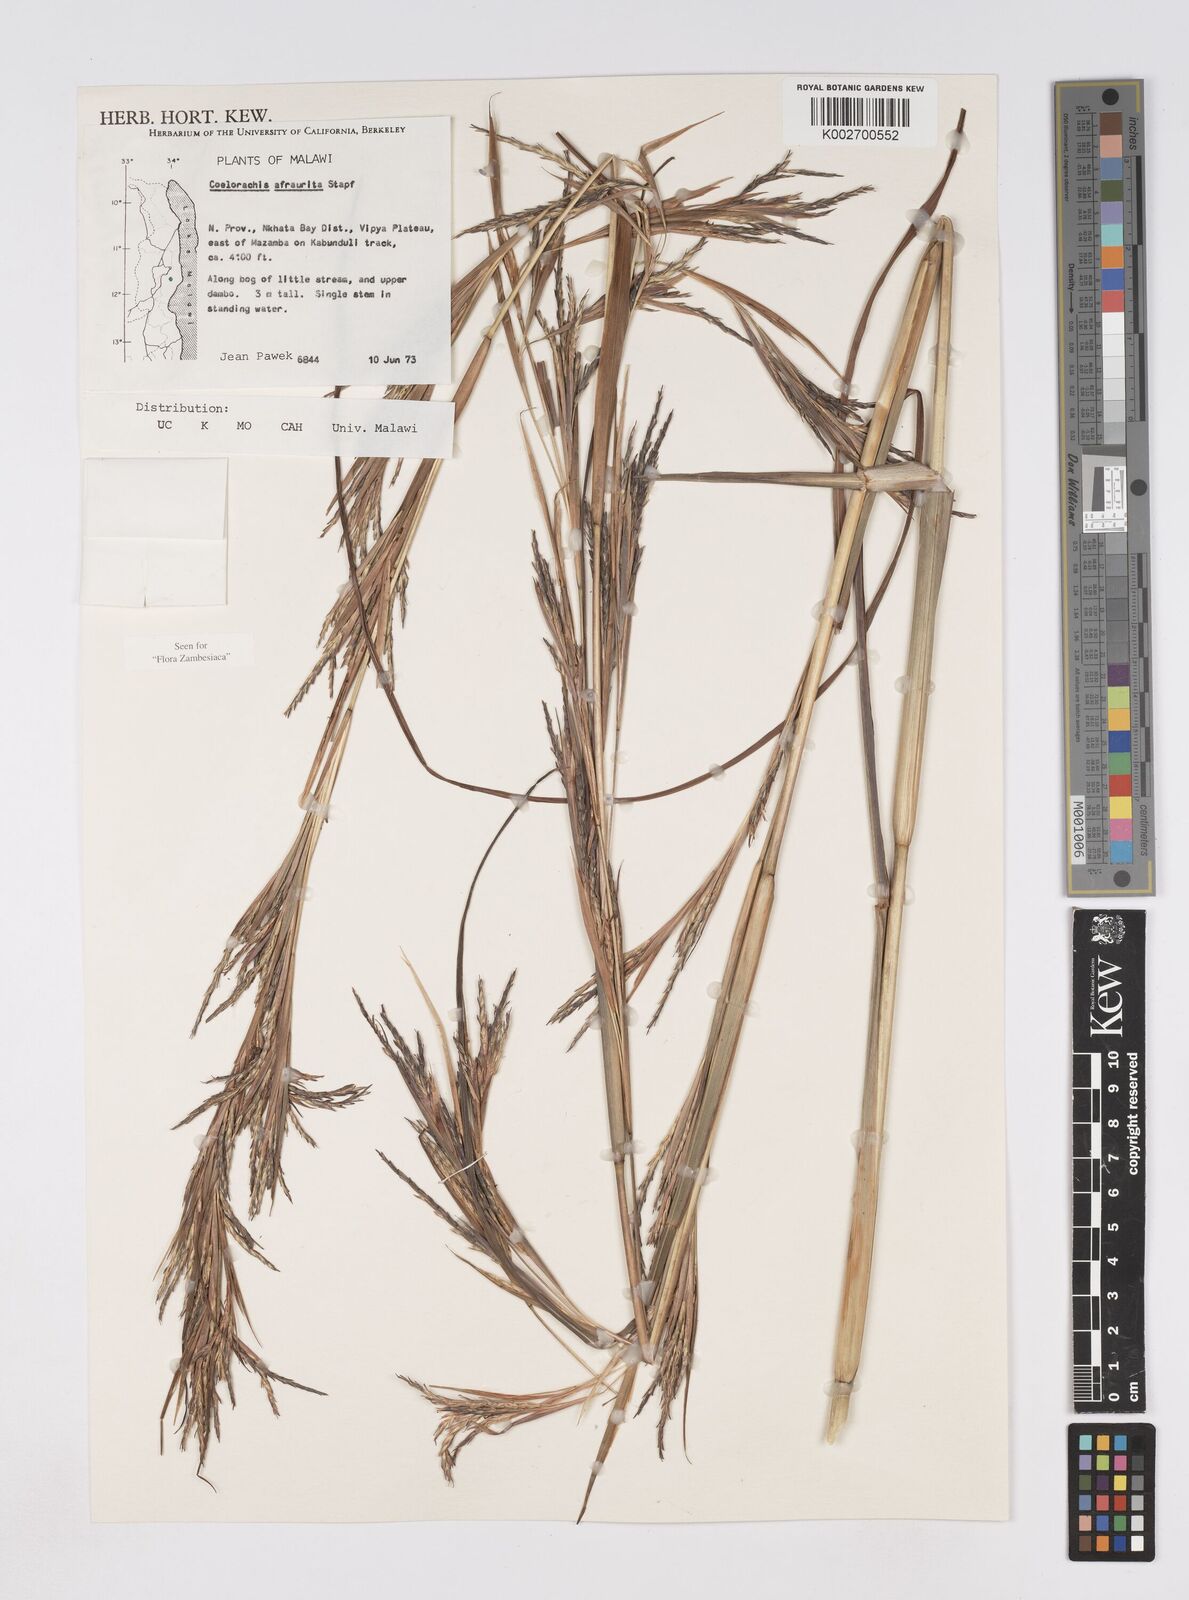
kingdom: Plantae
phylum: Tracheophyta
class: Liliopsida
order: Poales
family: Poaceae
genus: Rottboellia
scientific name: Rottboellia afraurita
